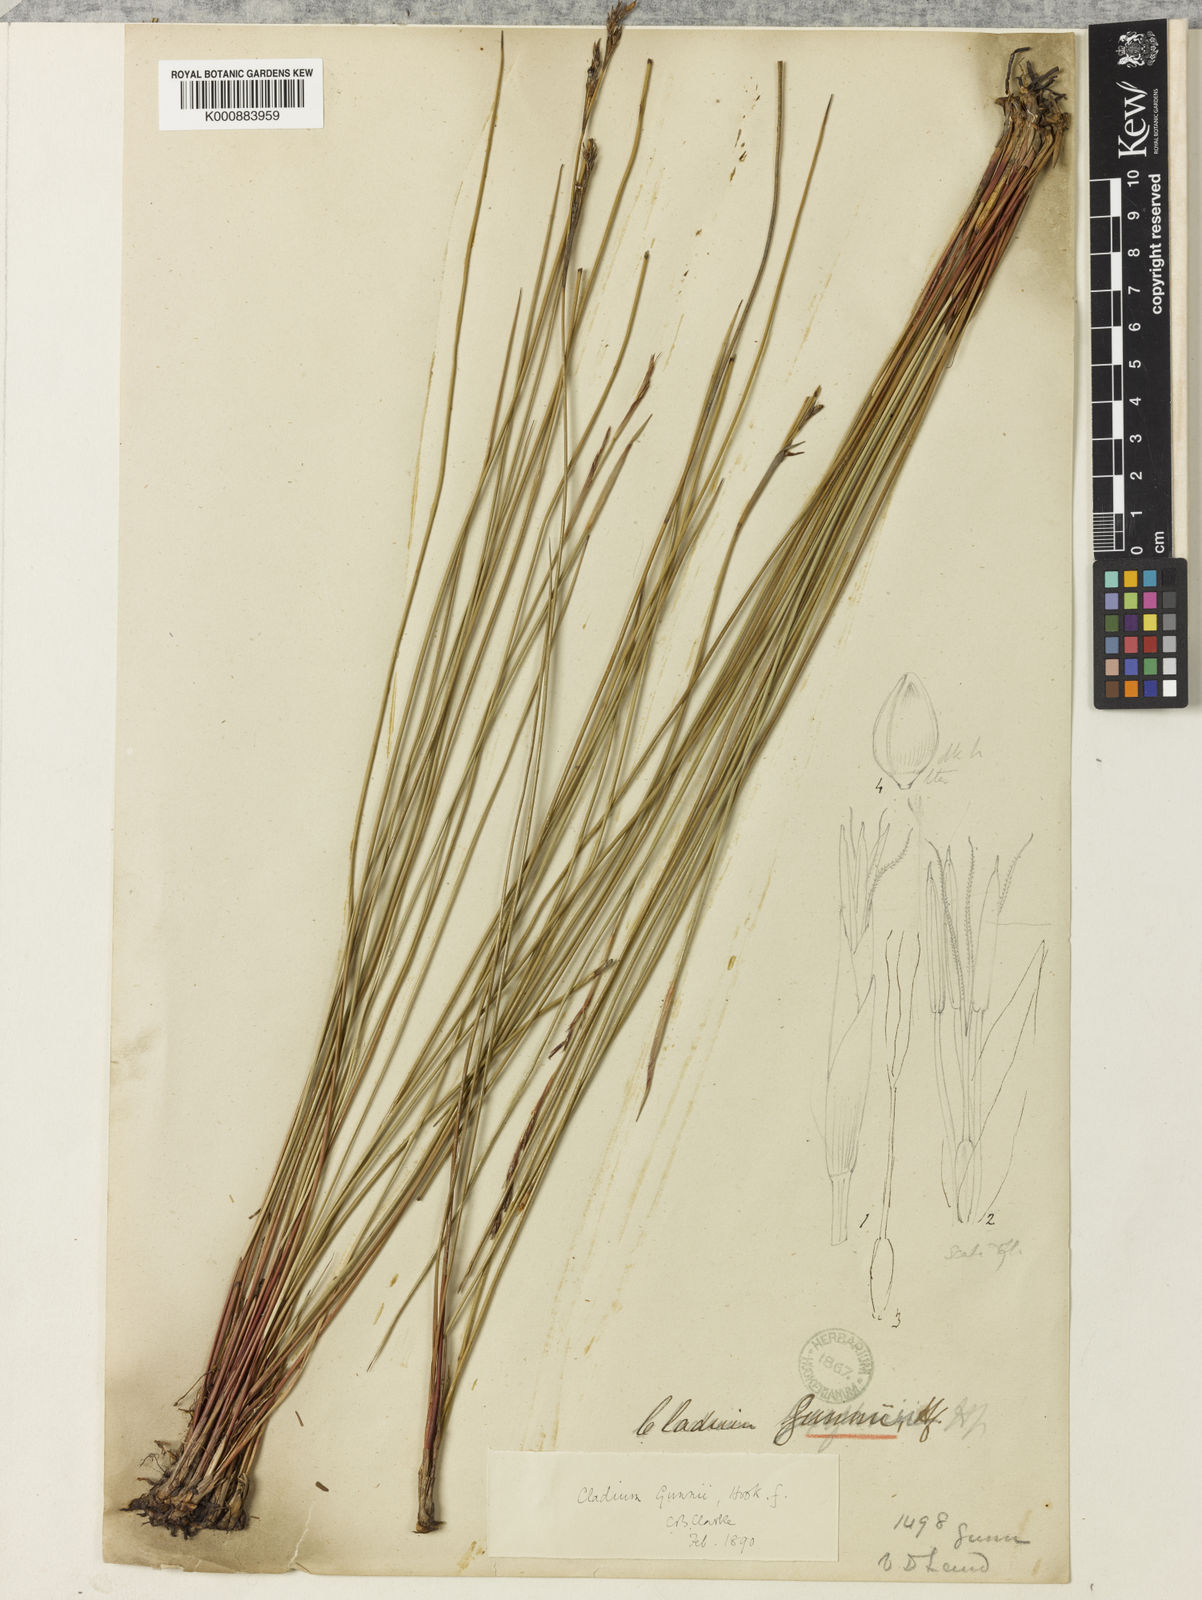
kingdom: Plantae
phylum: Tracheophyta
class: Liliopsida
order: Poales
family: Cyperaceae
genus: Machaerina
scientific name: Machaerina gunnii
